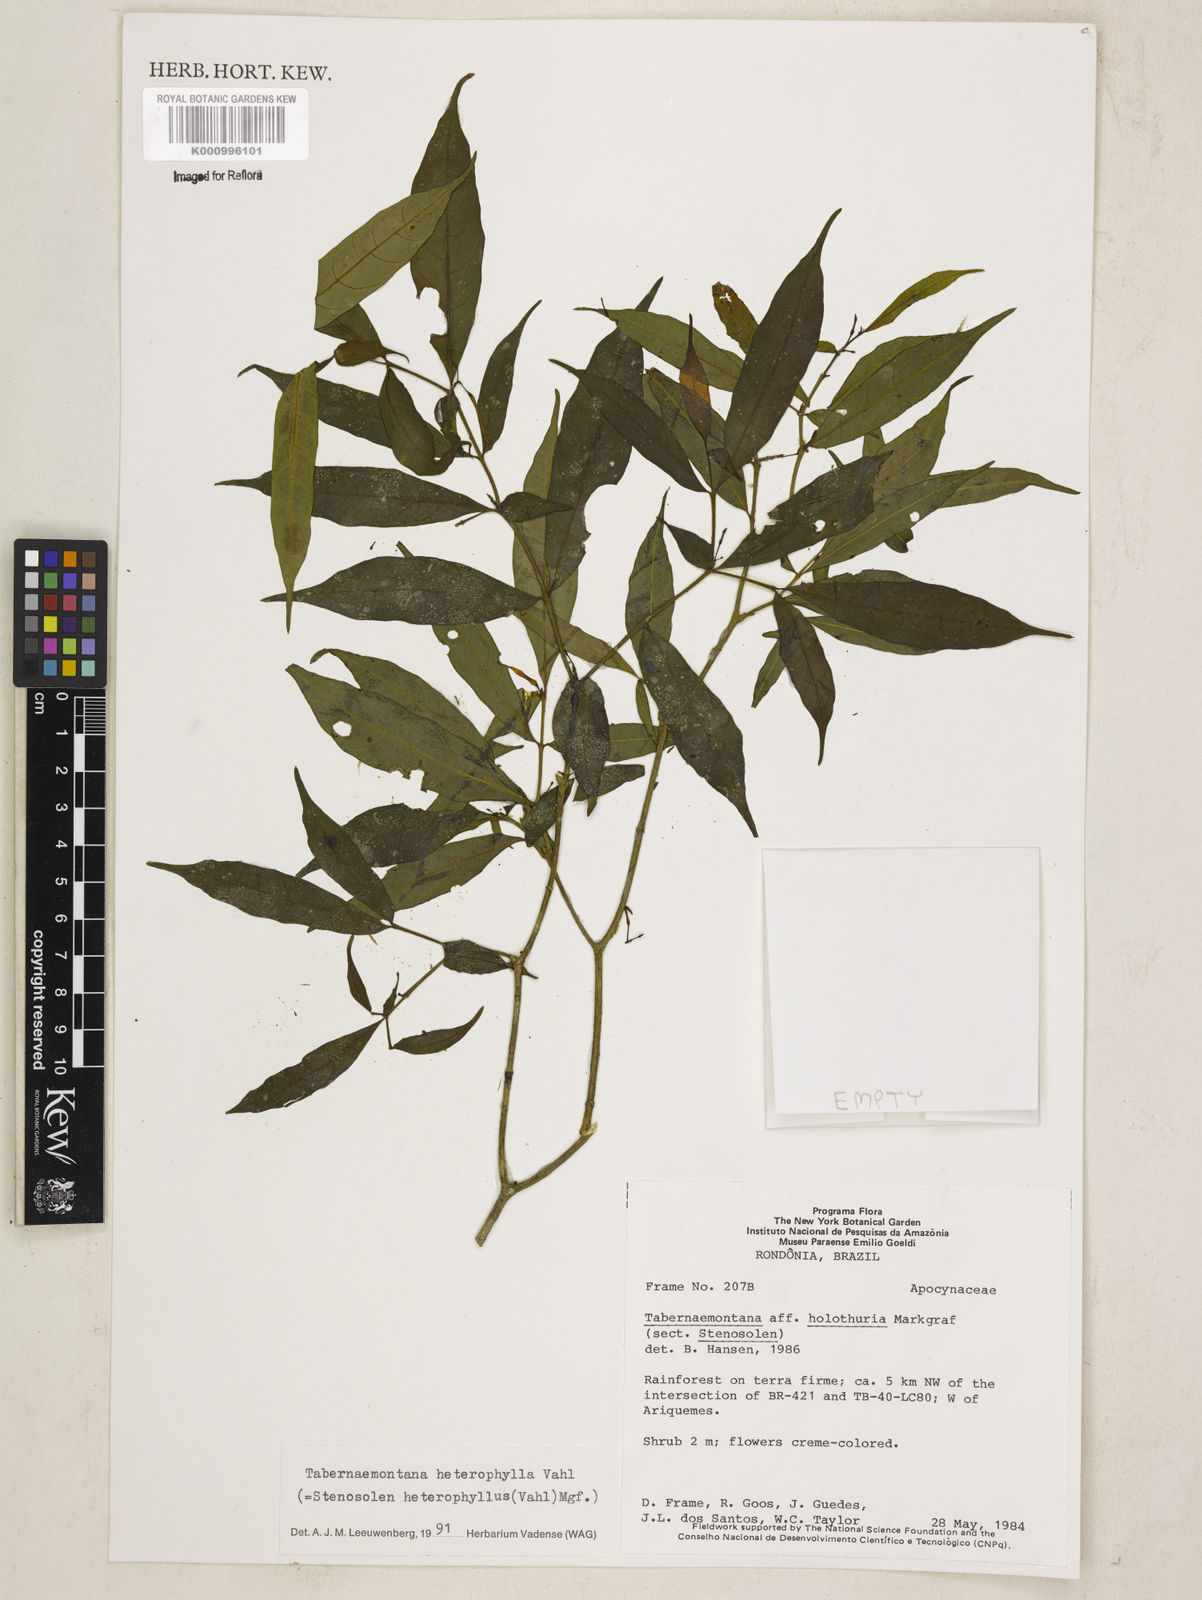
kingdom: Plantae
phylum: Tracheophyta
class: Magnoliopsida
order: Gentianales
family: Apocynaceae
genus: Tabernaemontana
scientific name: Tabernaemontana heterophylla
